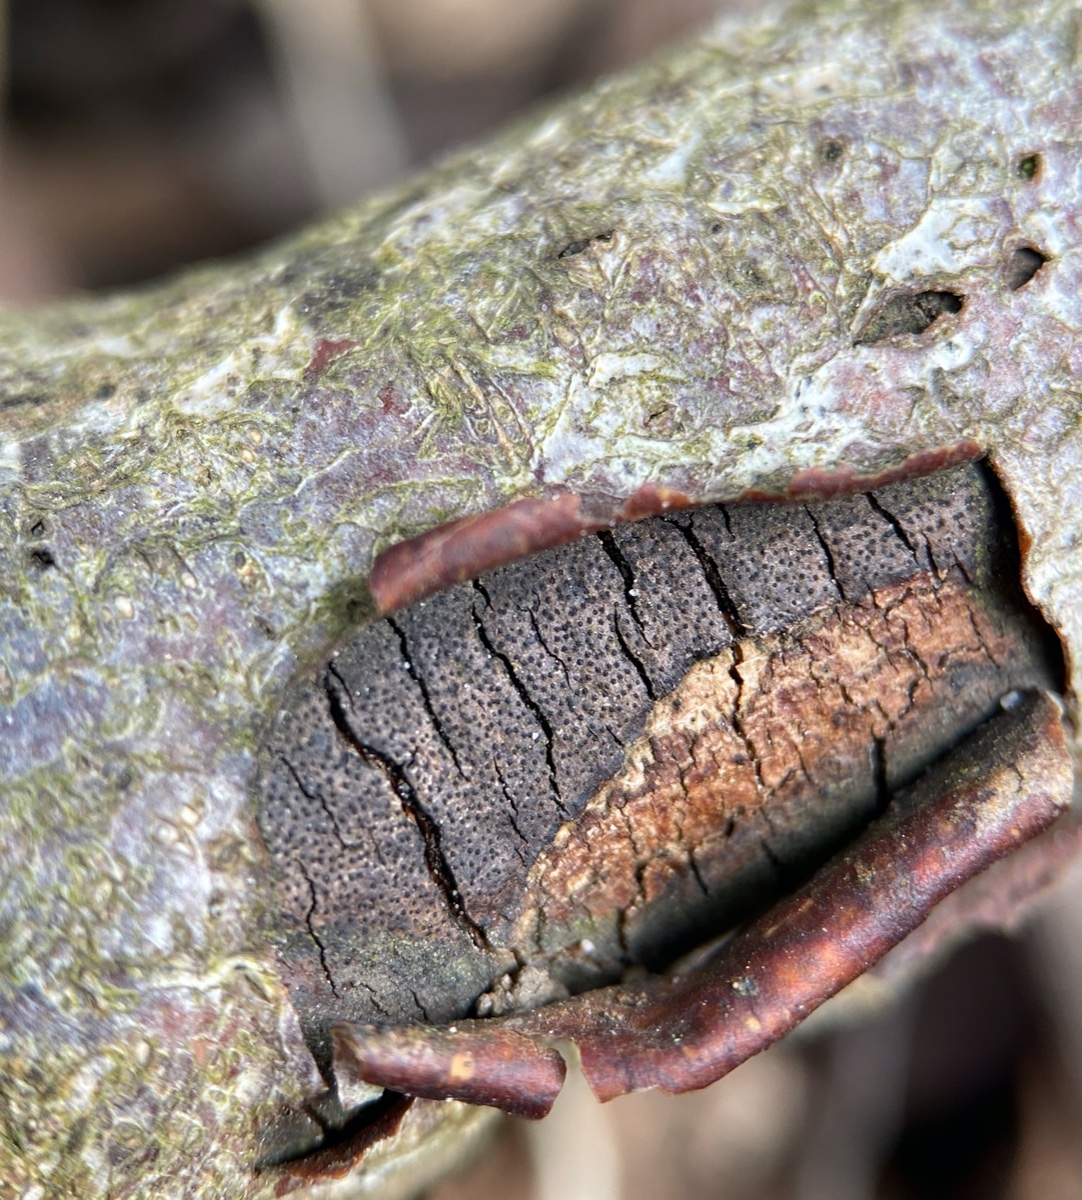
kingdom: Fungi
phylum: Ascomycota
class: Sordariomycetes
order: Xylariales
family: Diatrypaceae
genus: Diatrype
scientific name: Diatrype decorticata
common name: barksprænger-kulskorpe
